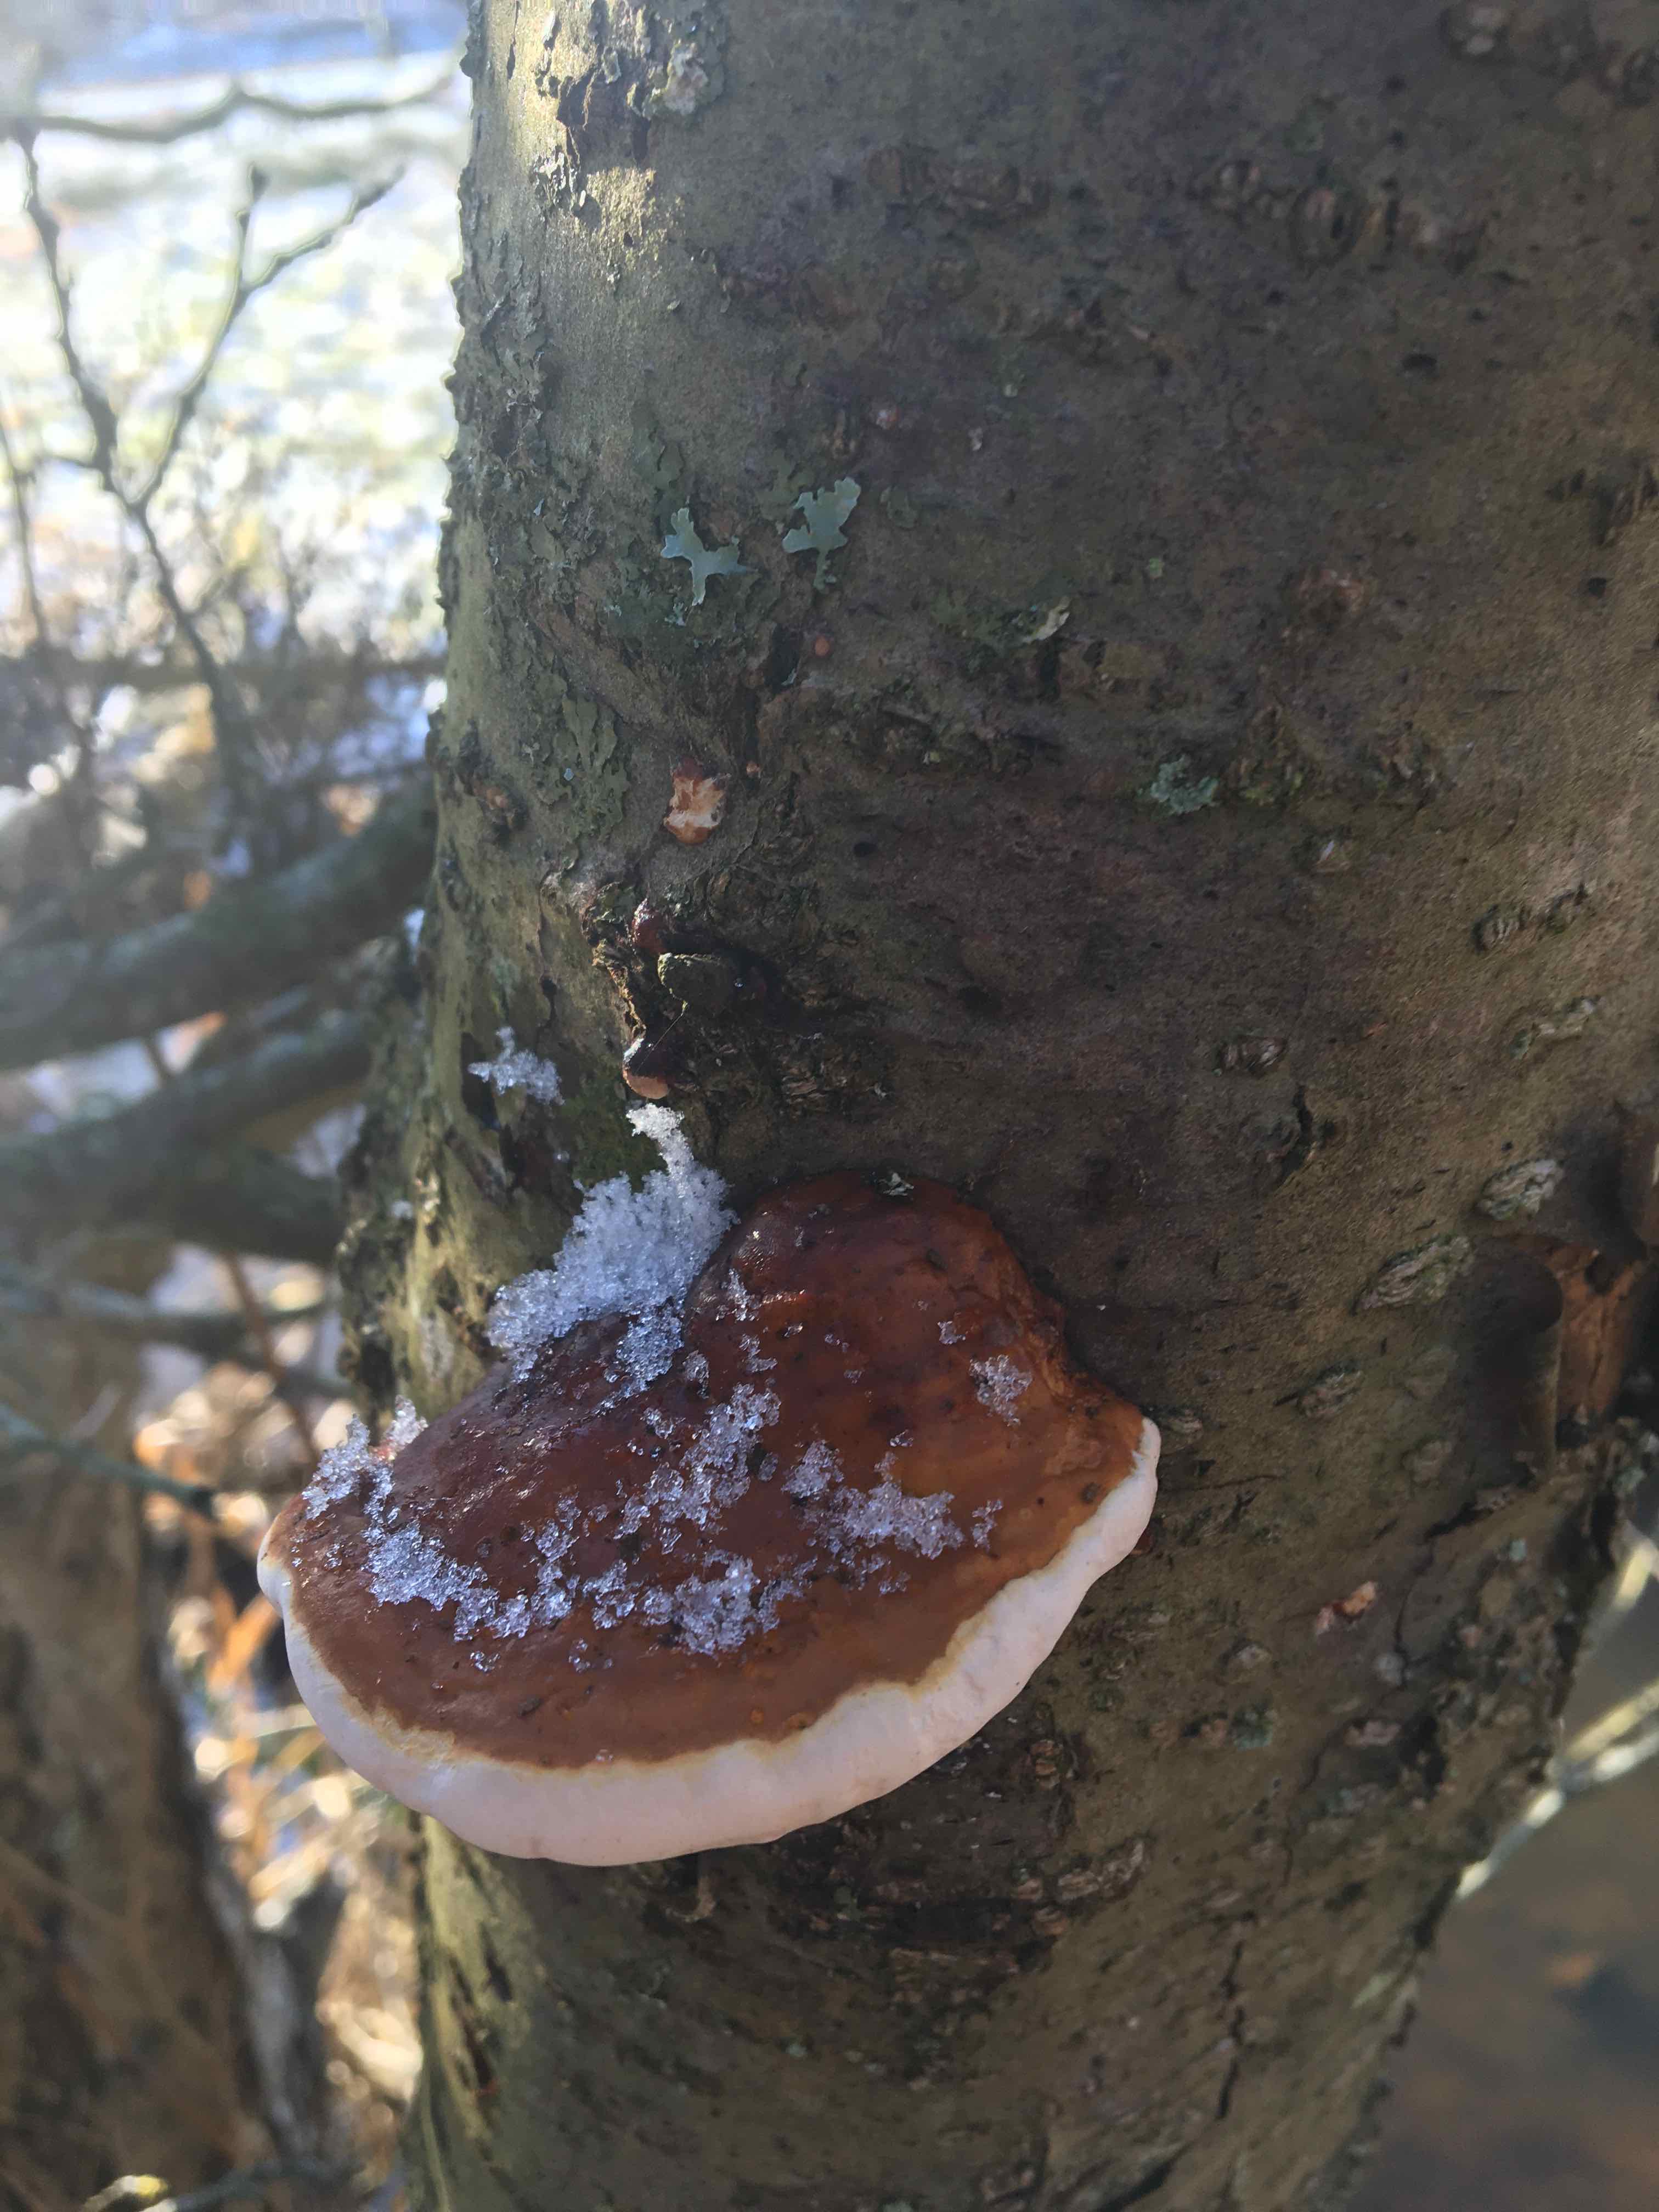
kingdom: Fungi
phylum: Basidiomycota
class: Agaricomycetes
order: Polyporales
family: Fomitopsidaceae
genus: Fomitopsis
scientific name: Fomitopsis pinicola
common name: randbæltet hovporesvamp
